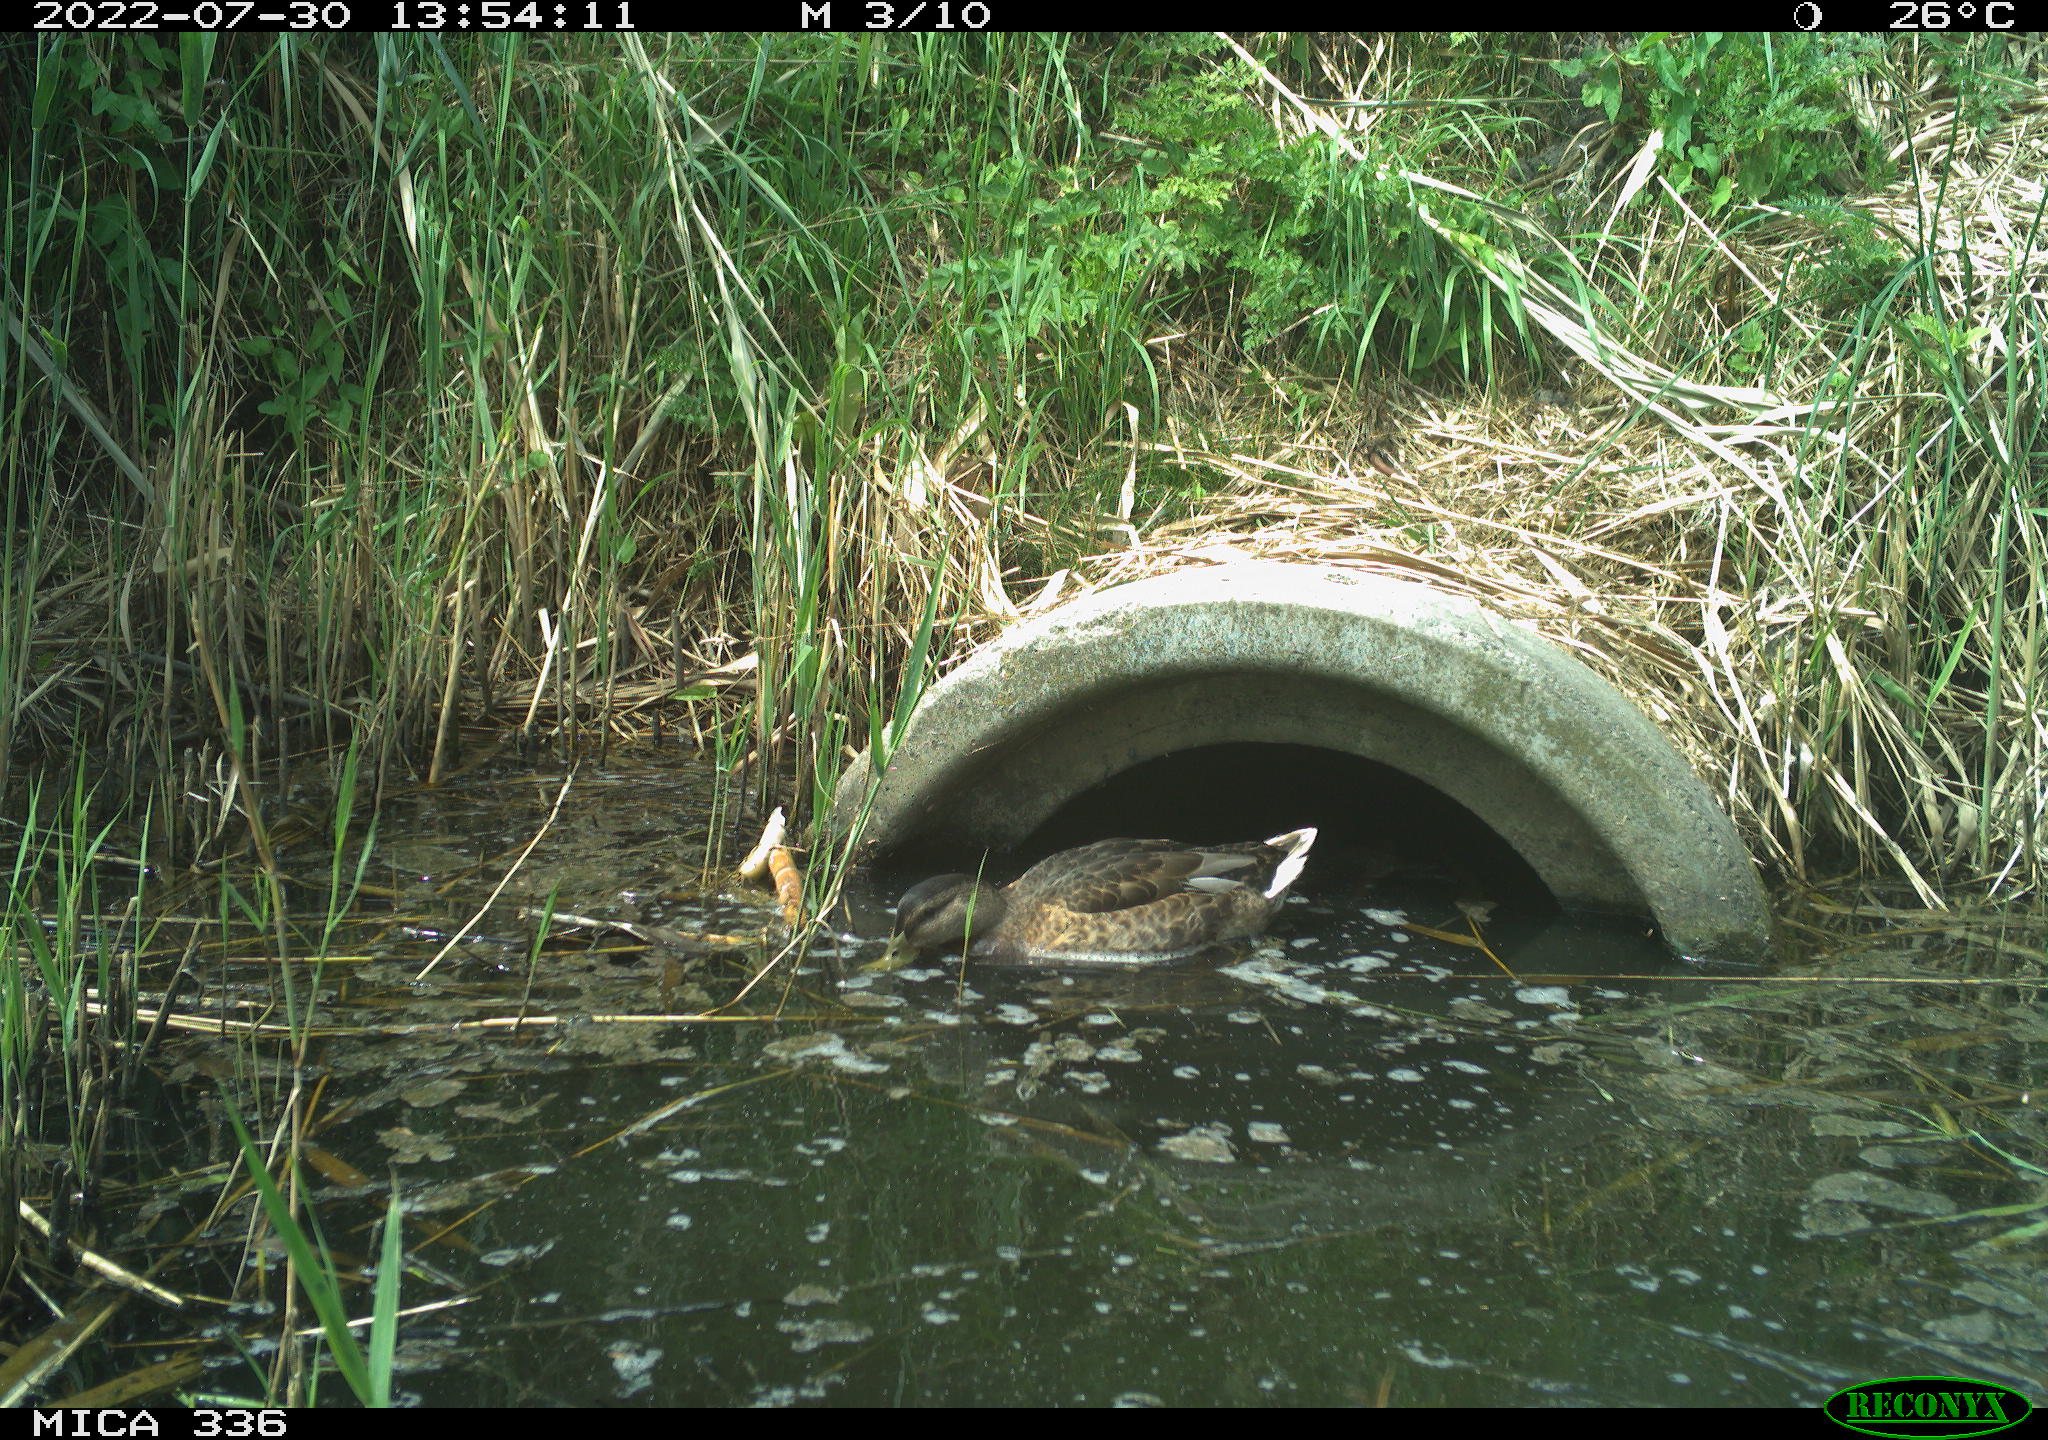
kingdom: Animalia
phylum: Chordata
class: Aves
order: Anseriformes
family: Anatidae
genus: Mareca
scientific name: Mareca strepera
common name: Gadwall
